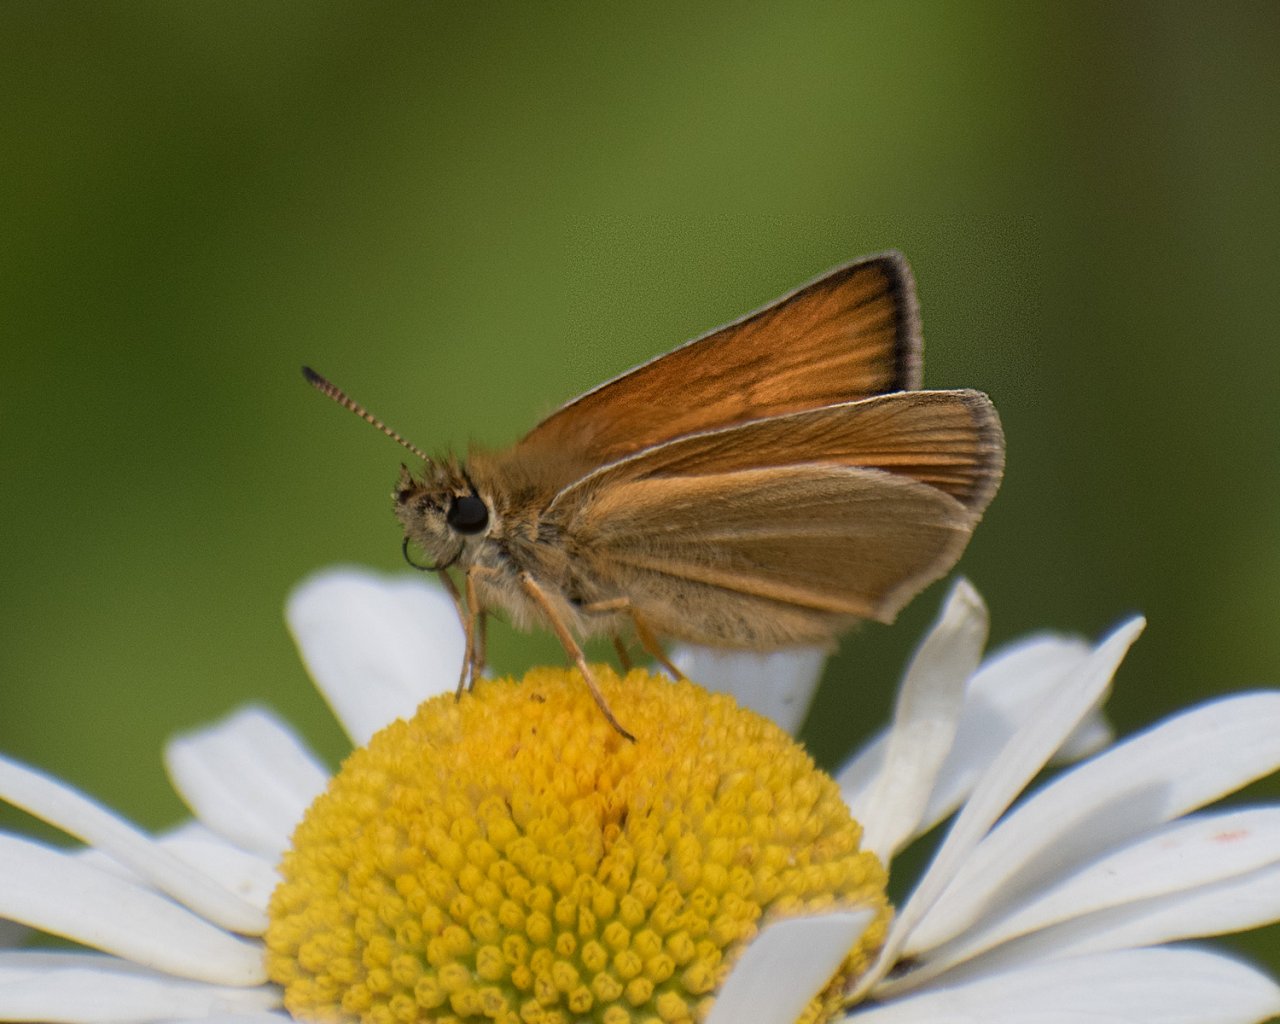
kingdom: Animalia
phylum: Arthropoda
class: Insecta
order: Lepidoptera
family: Hesperiidae
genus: Thymelicus
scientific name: Thymelicus lineola
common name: European Skipper
